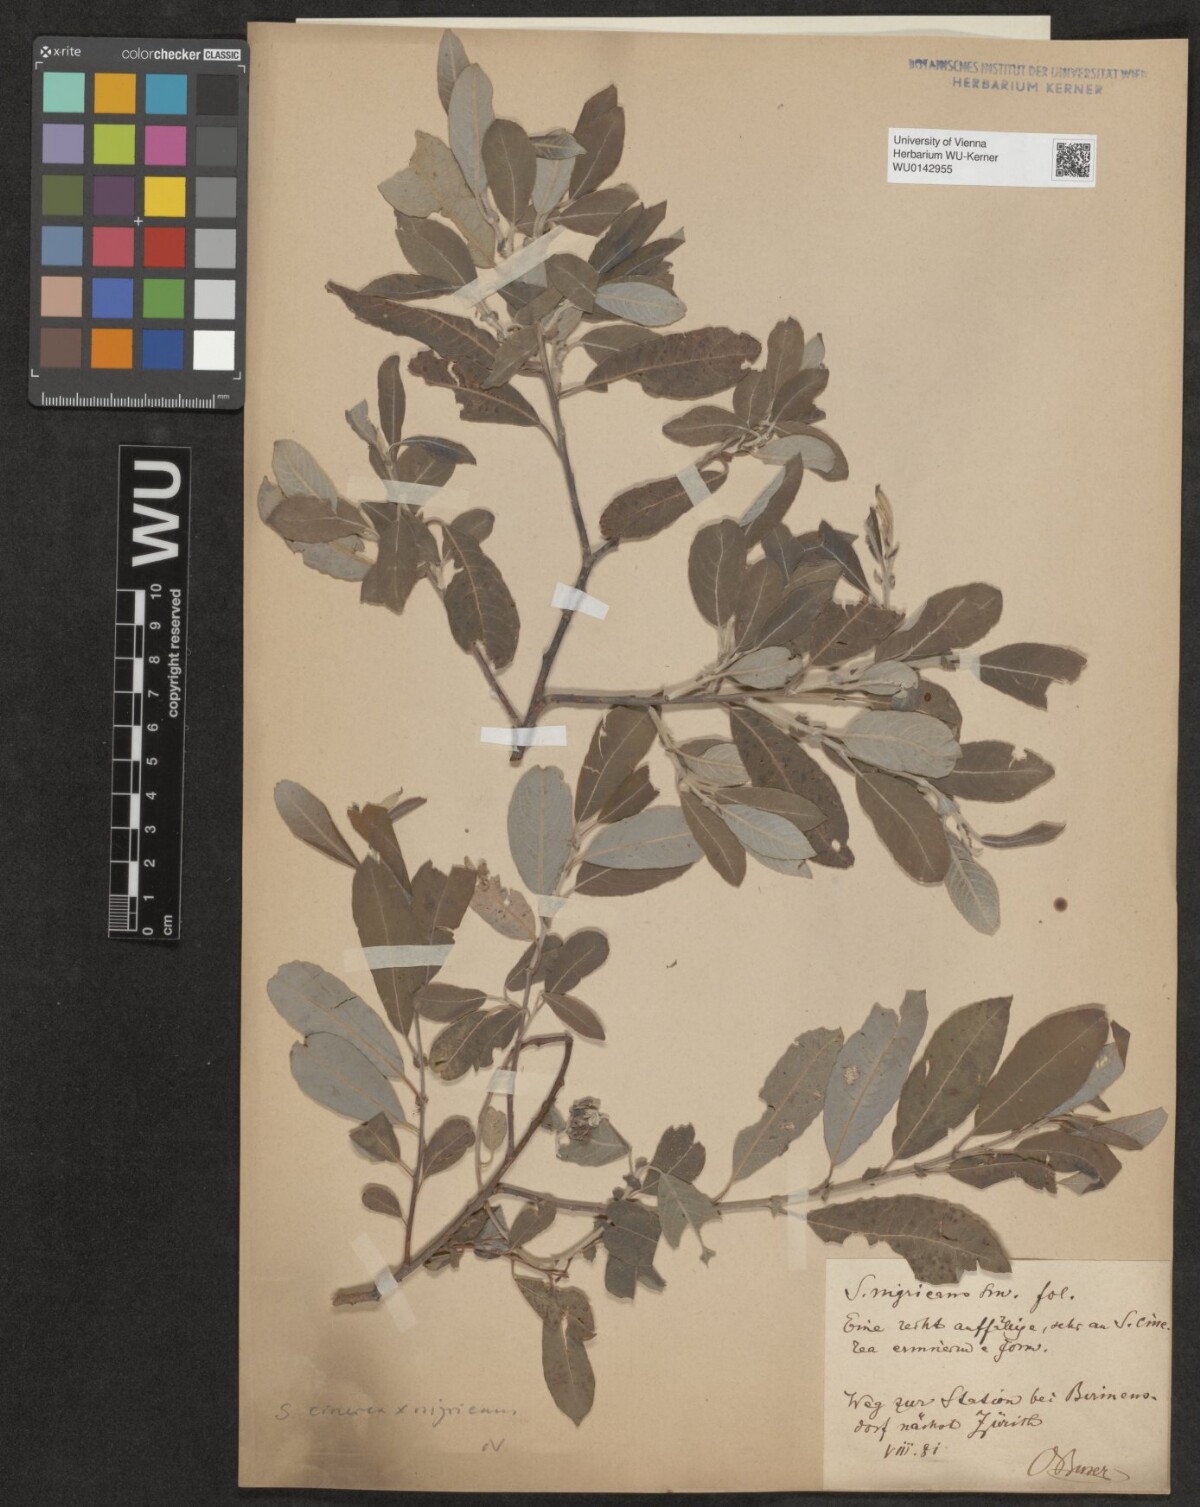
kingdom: Plantae
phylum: Tracheophyta
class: Magnoliopsida
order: Malpighiales
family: Salicaceae
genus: Salix
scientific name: Salix myrsinifolia
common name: Dark-leaved willow
